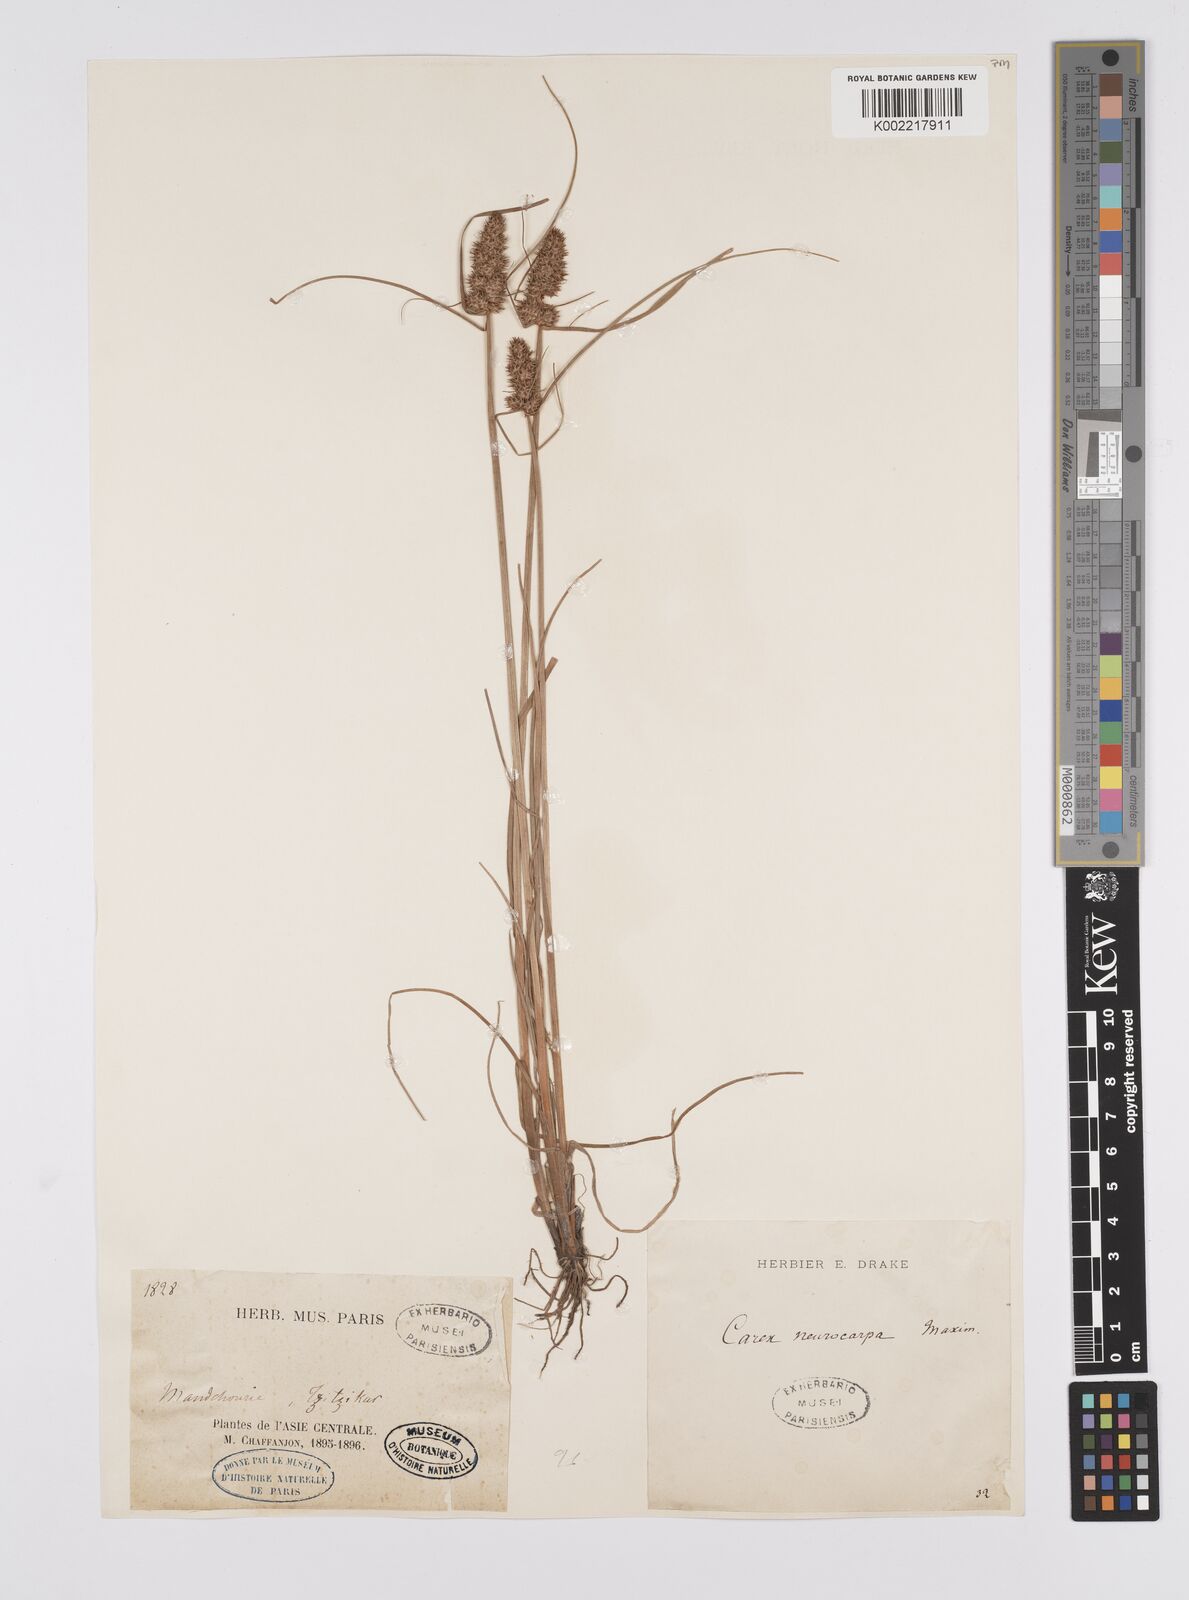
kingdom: Plantae
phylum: Tracheophyta
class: Liliopsida
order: Poales
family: Cyperaceae
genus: Carex
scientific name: Carex neurocarpa
